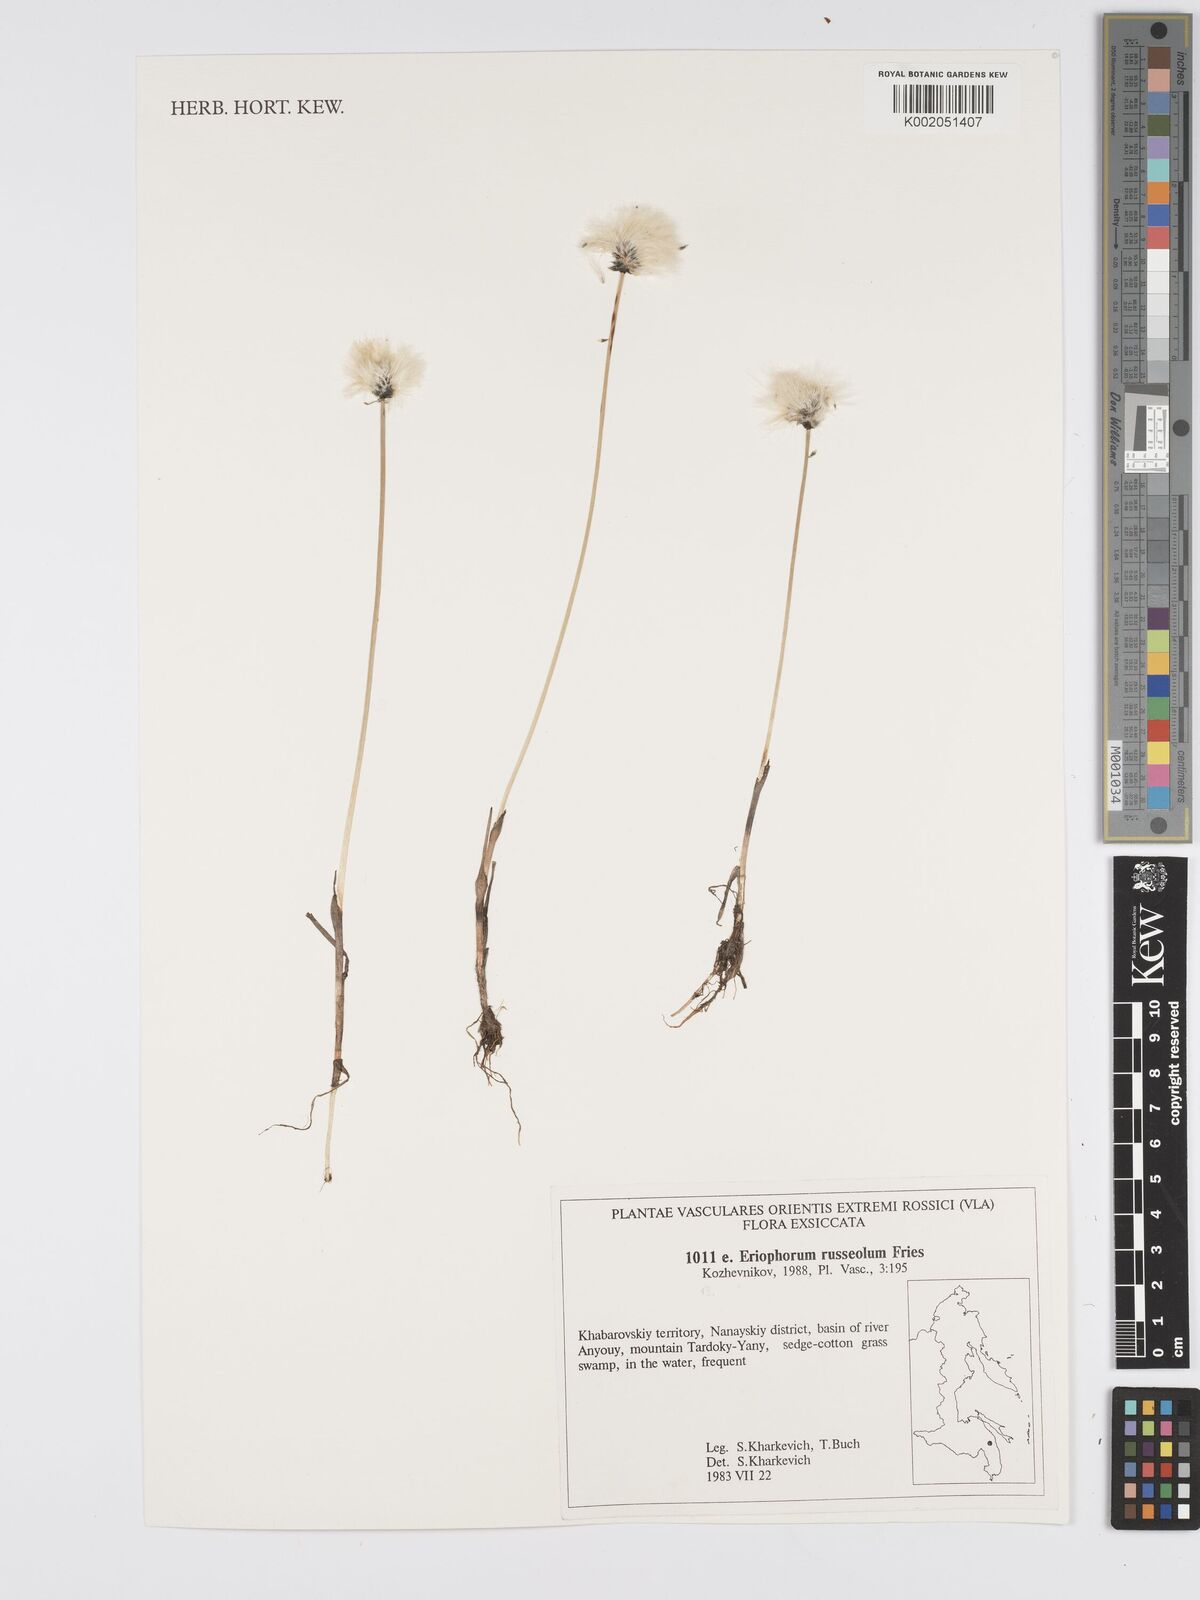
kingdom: Plantae
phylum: Tracheophyta
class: Liliopsida
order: Poales
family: Cyperaceae
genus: Eriophorum
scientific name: Eriophorum scheuchzeri
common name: Scheuchzer's cottongrass
